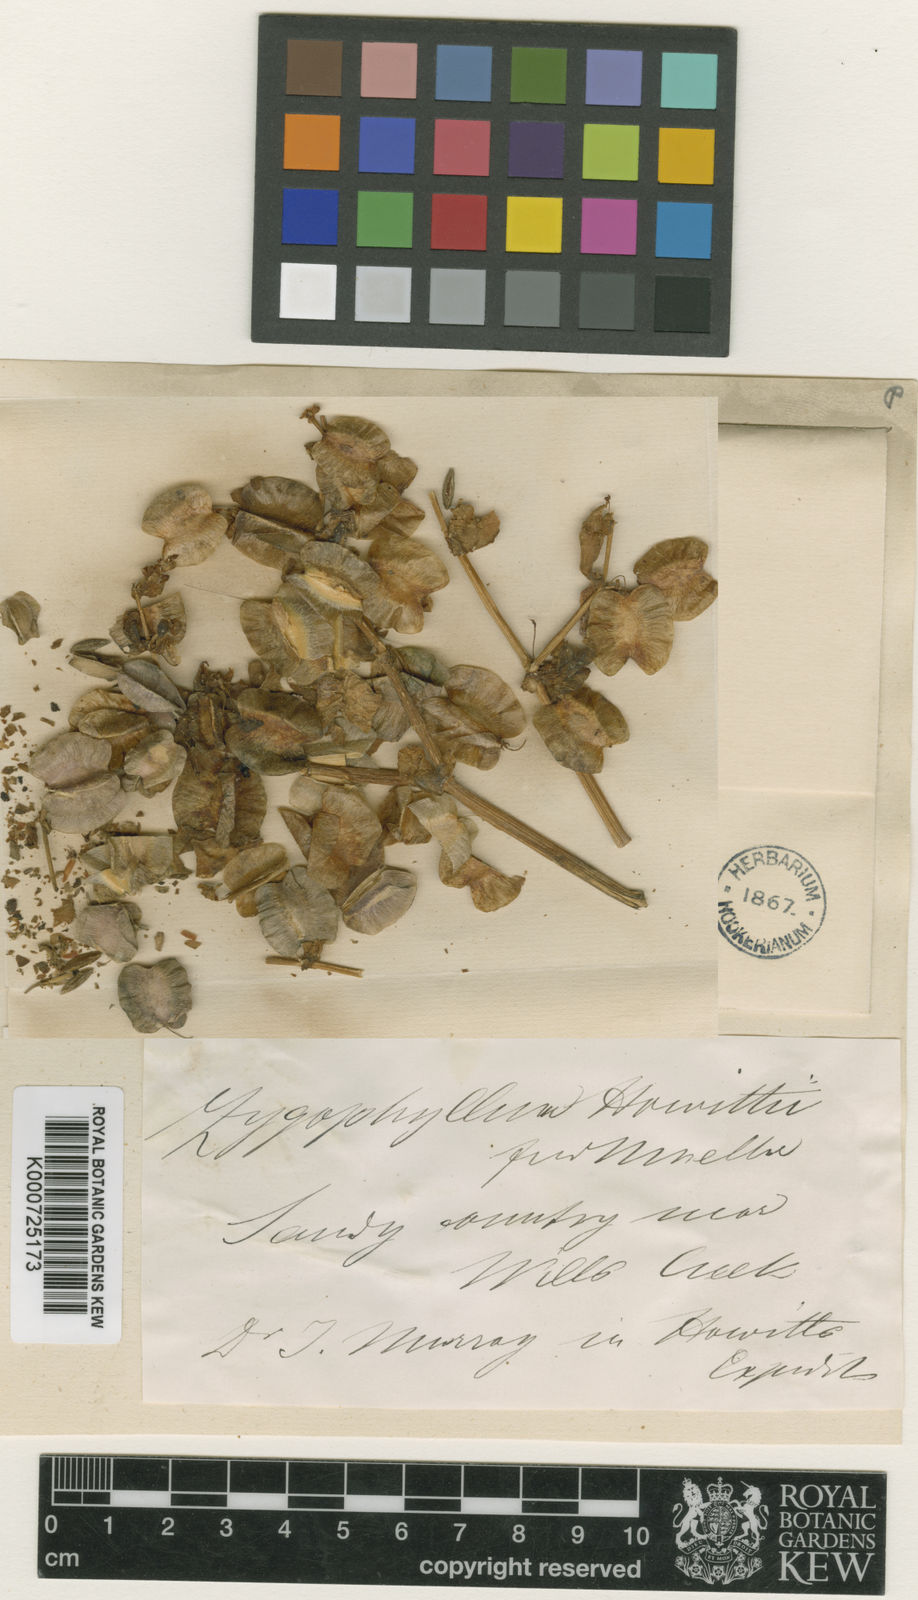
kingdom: Plantae
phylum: Tracheophyta
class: Magnoliopsida
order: Zygophyllales
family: Zygophyllaceae
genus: Roepera
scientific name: Roepera howittii
